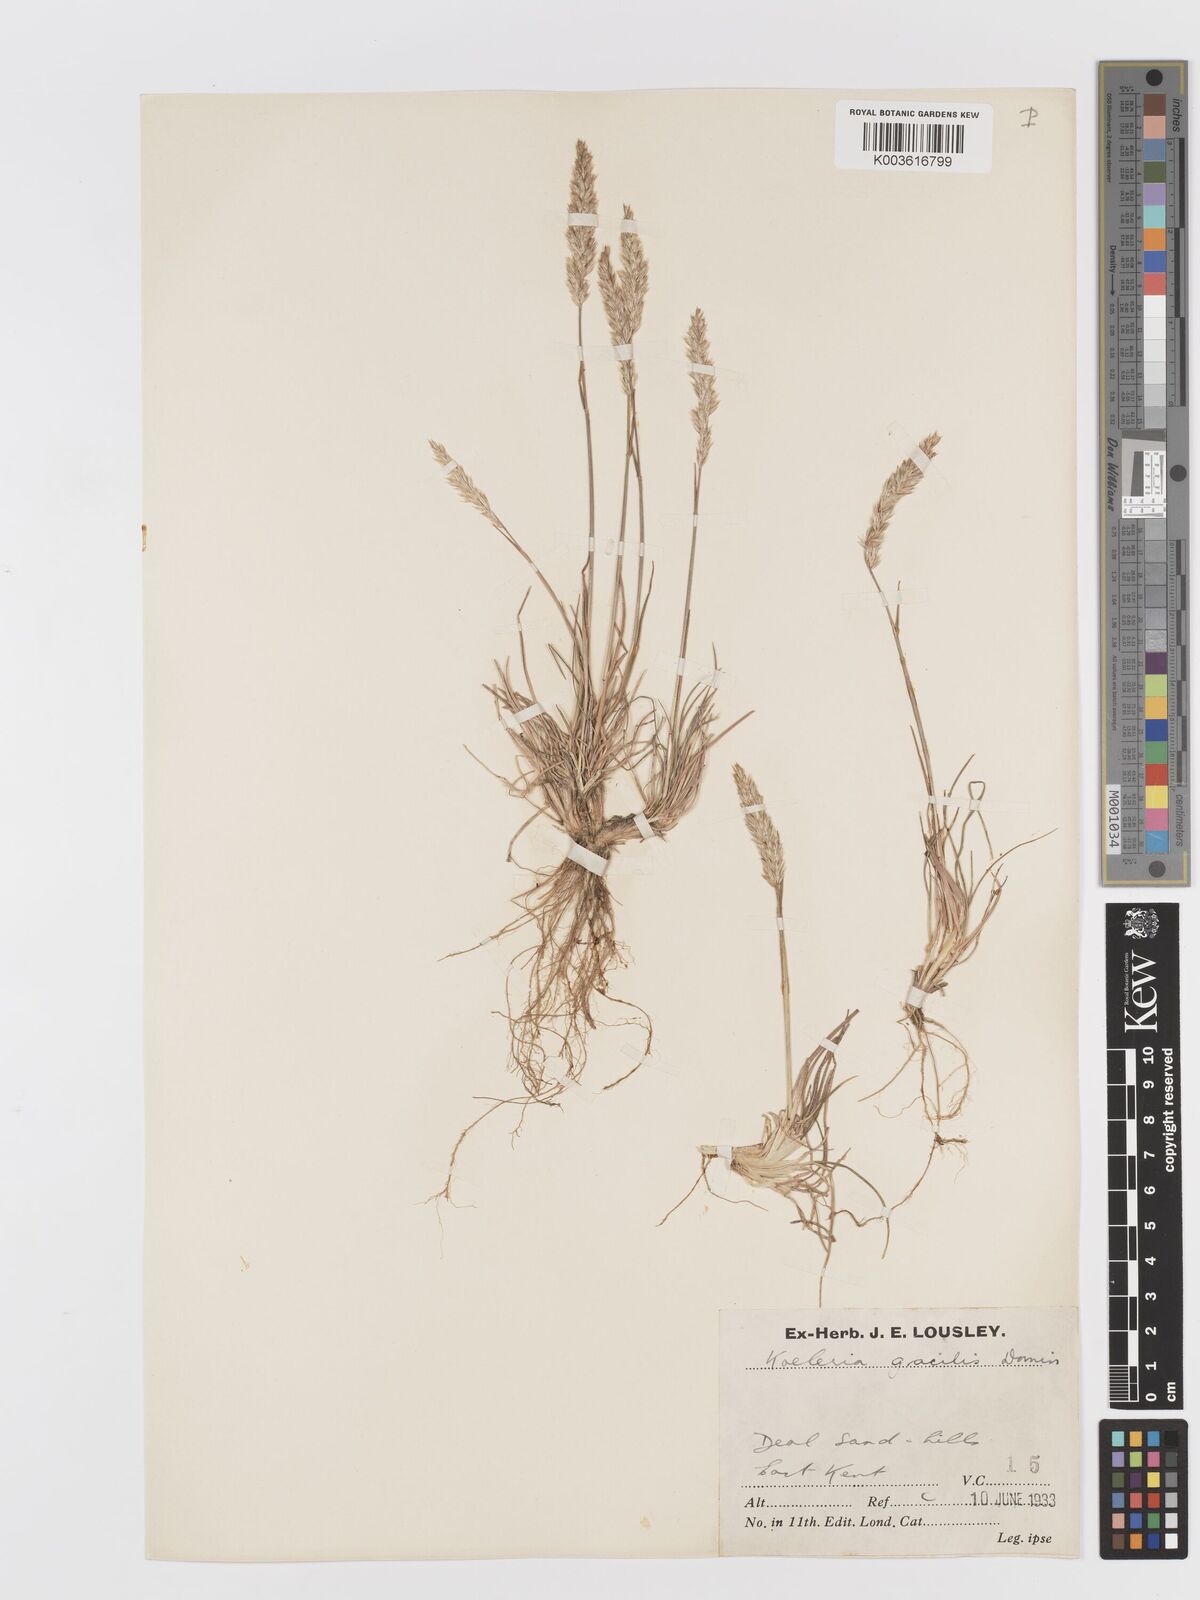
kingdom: Plantae
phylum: Tracheophyta
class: Liliopsida
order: Poales
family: Poaceae
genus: Koeleria
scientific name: Koeleria macrantha
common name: Crested hair-grass
